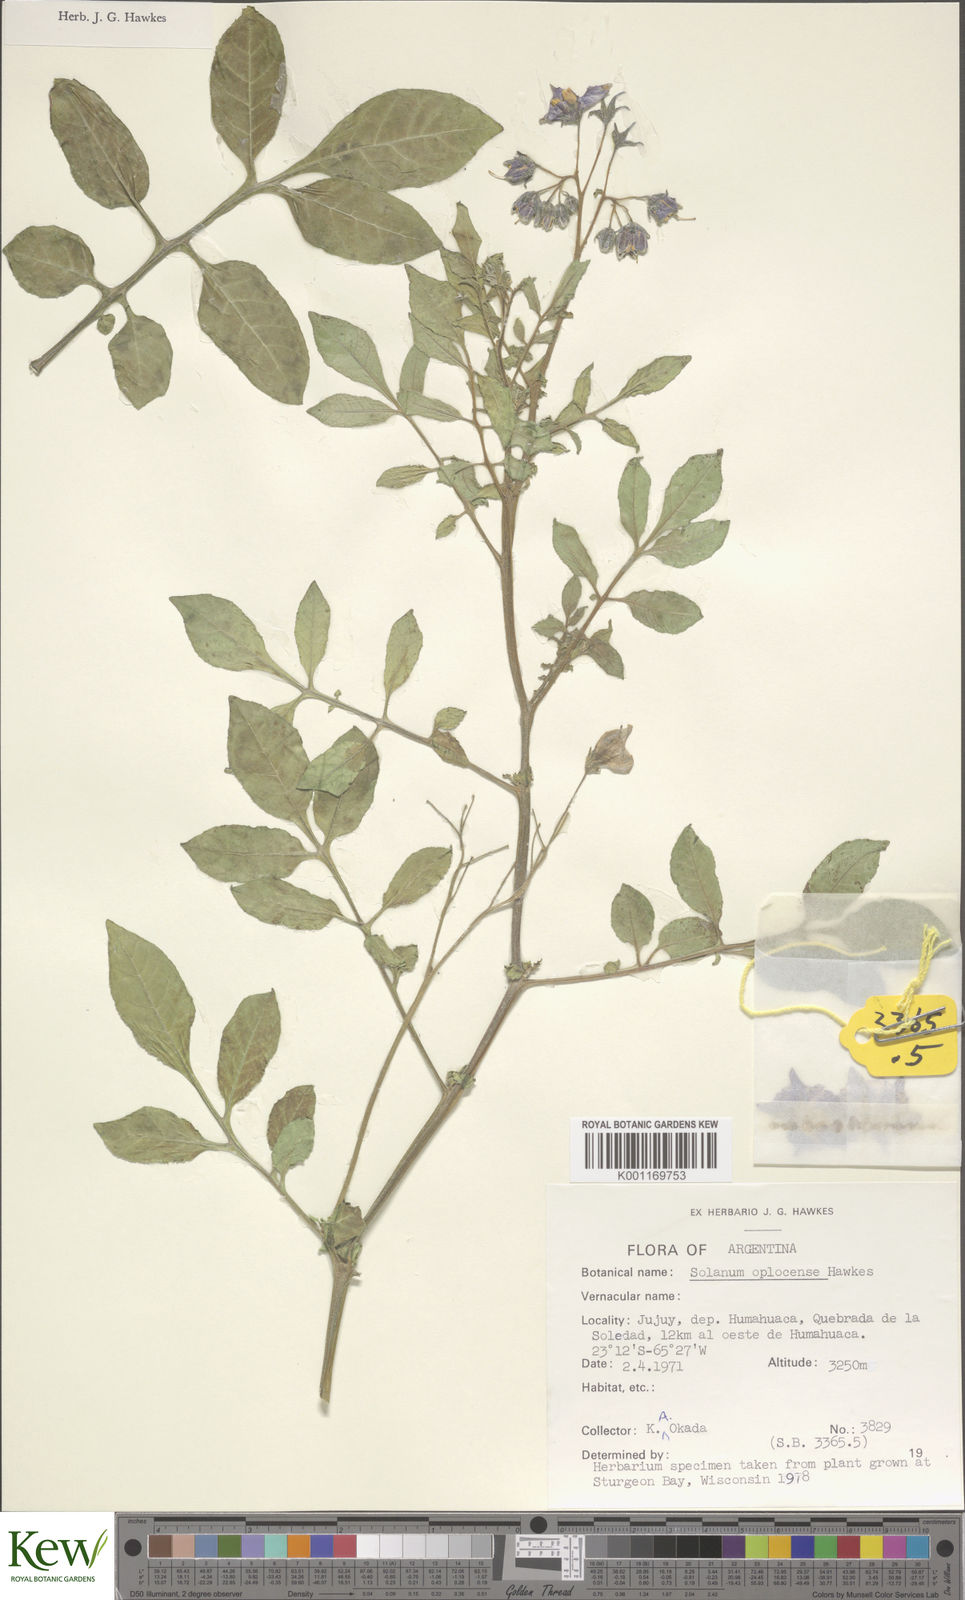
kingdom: Plantae
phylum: Tracheophyta
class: Magnoliopsida
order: Solanales
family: Solanaceae
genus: Solanum
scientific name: Solanum brevicaule
